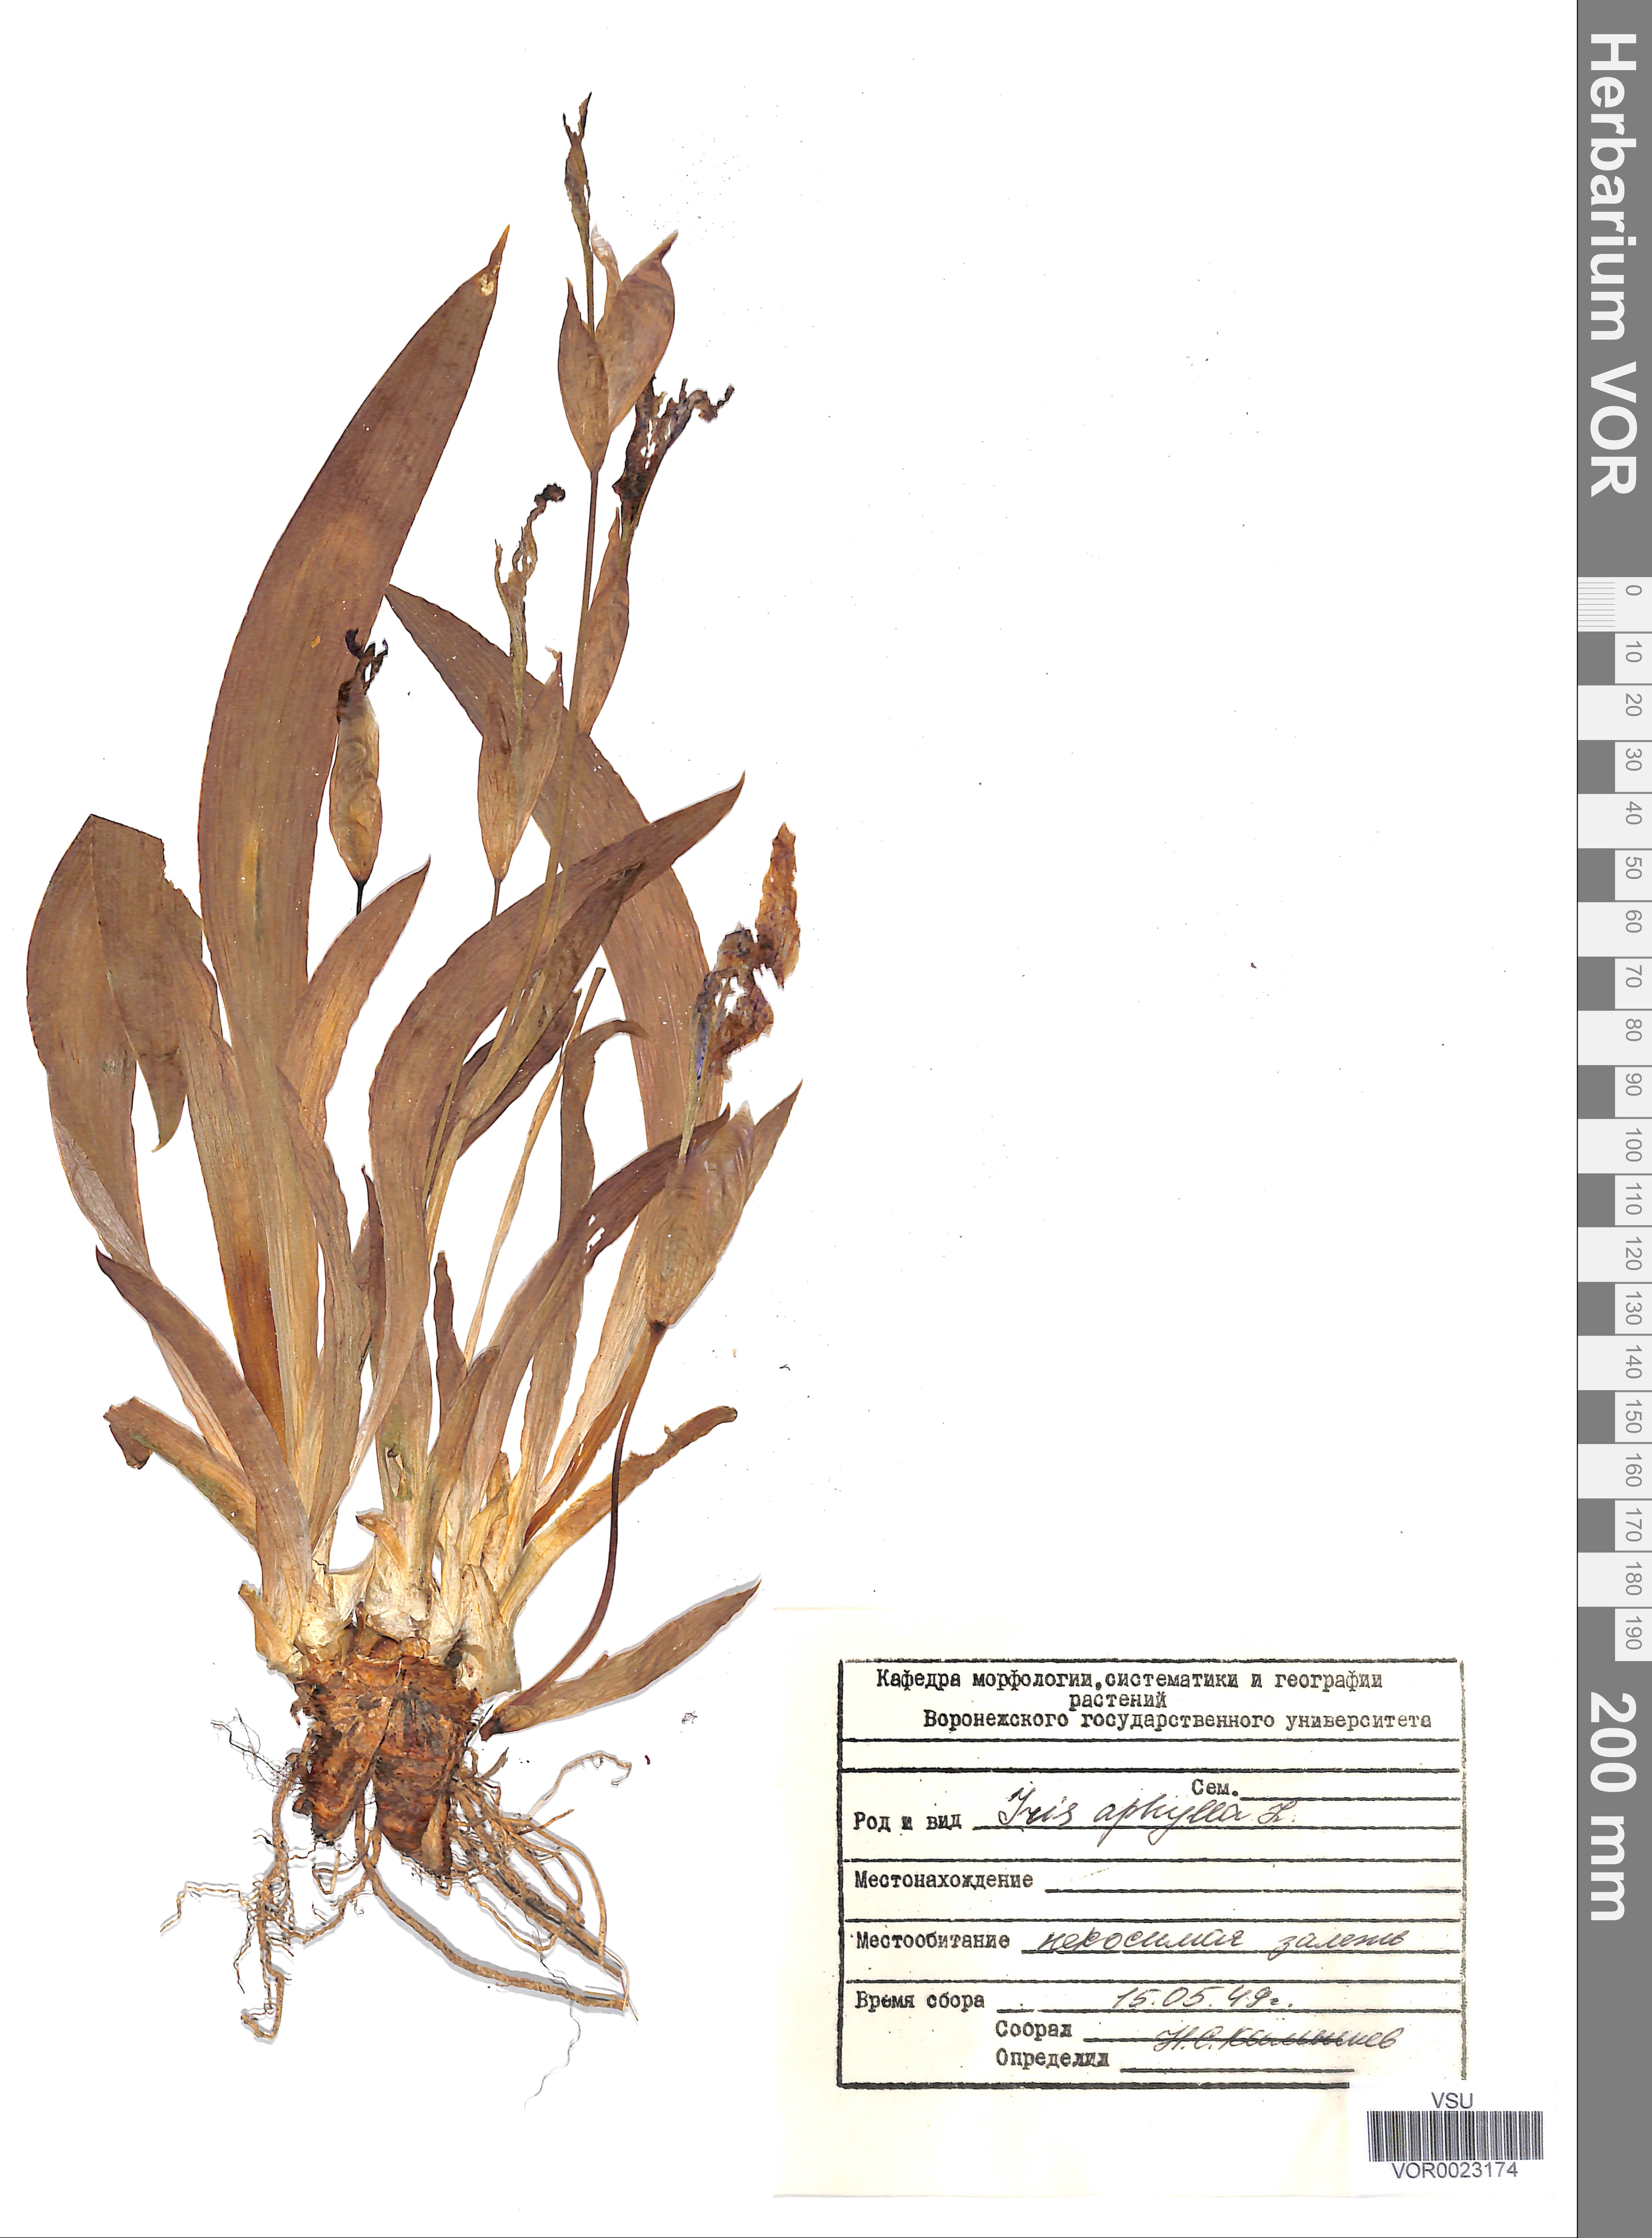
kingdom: Plantae
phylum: Tracheophyta
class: Liliopsida
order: Asparagales
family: Iridaceae
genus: Iris
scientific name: Iris aphylla
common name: Stool iris
